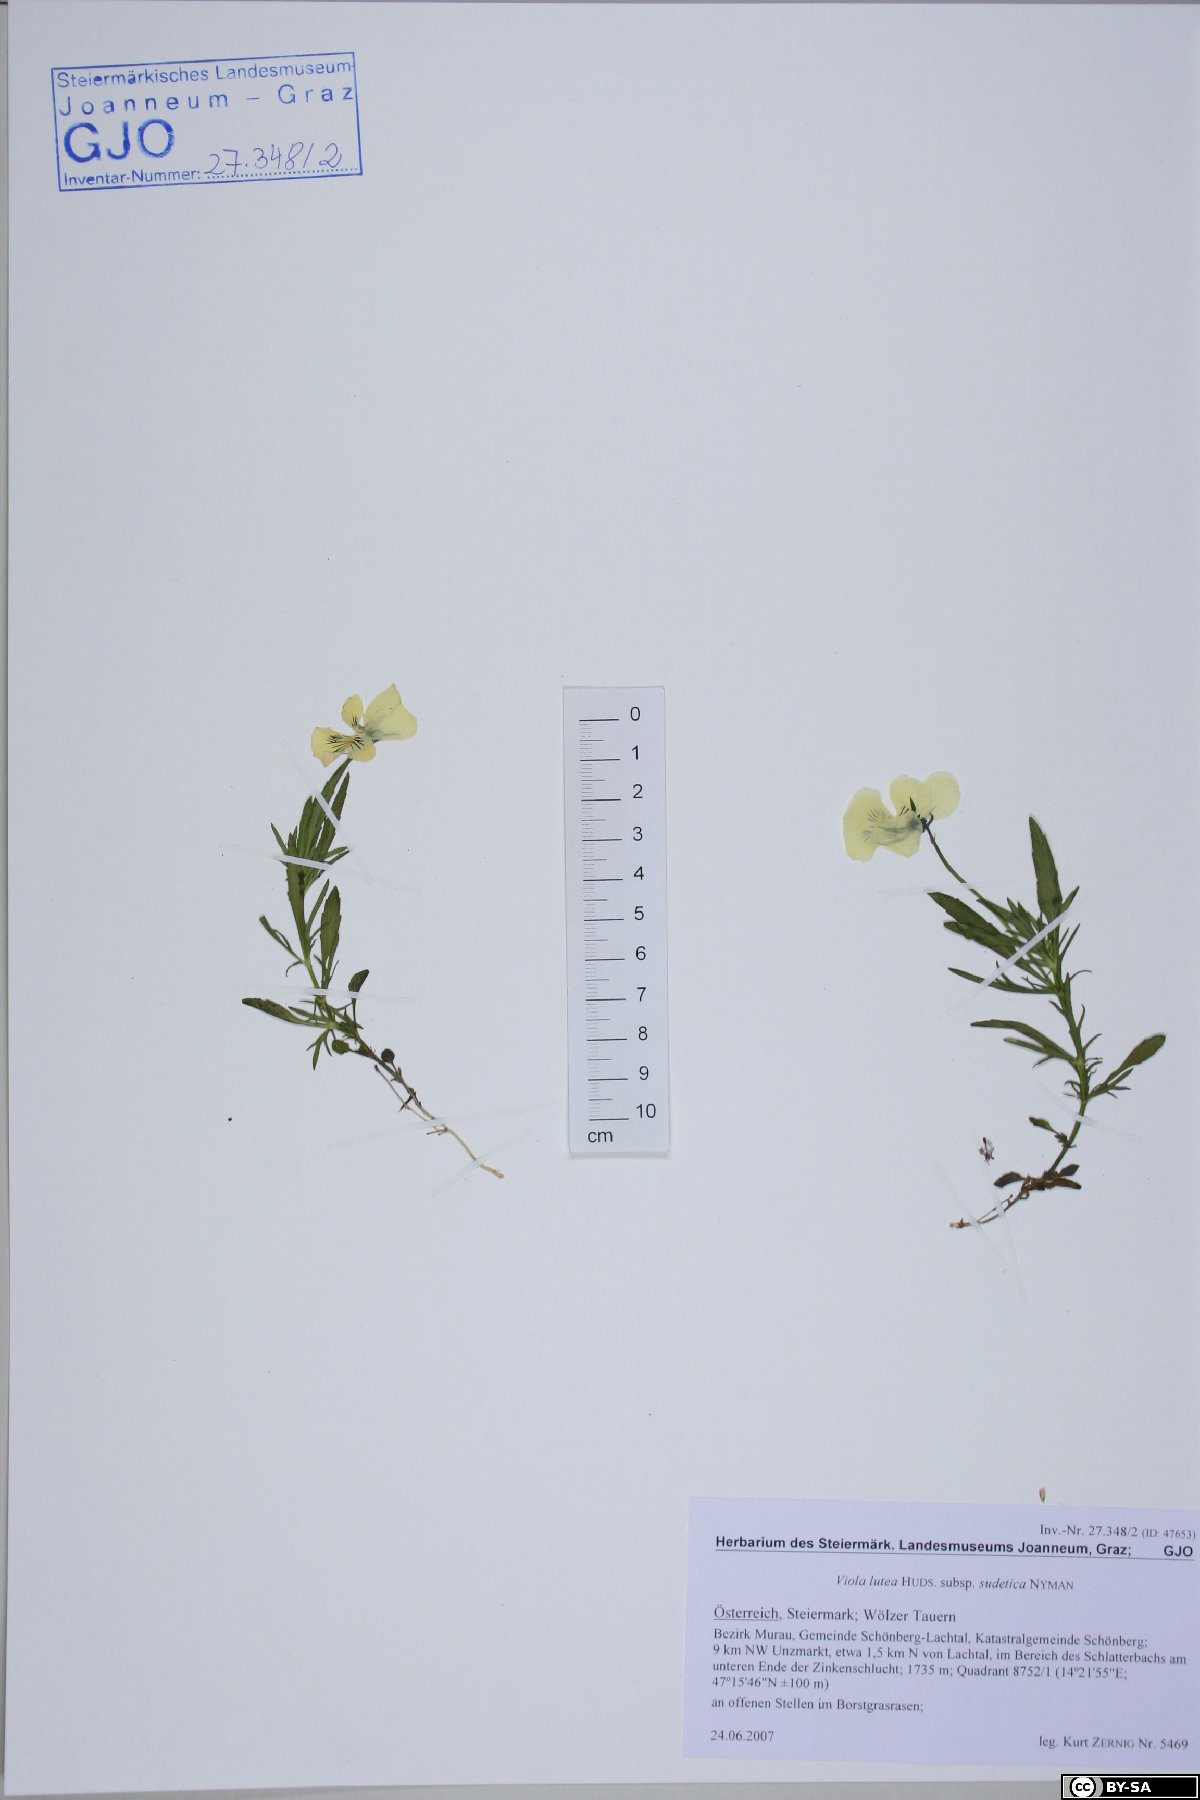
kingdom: Plantae
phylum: Tracheophyta
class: Magnoliopsida
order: Malpighiales
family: Violaceae
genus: Viola
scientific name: Viola lutea
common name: Mountain pansy
